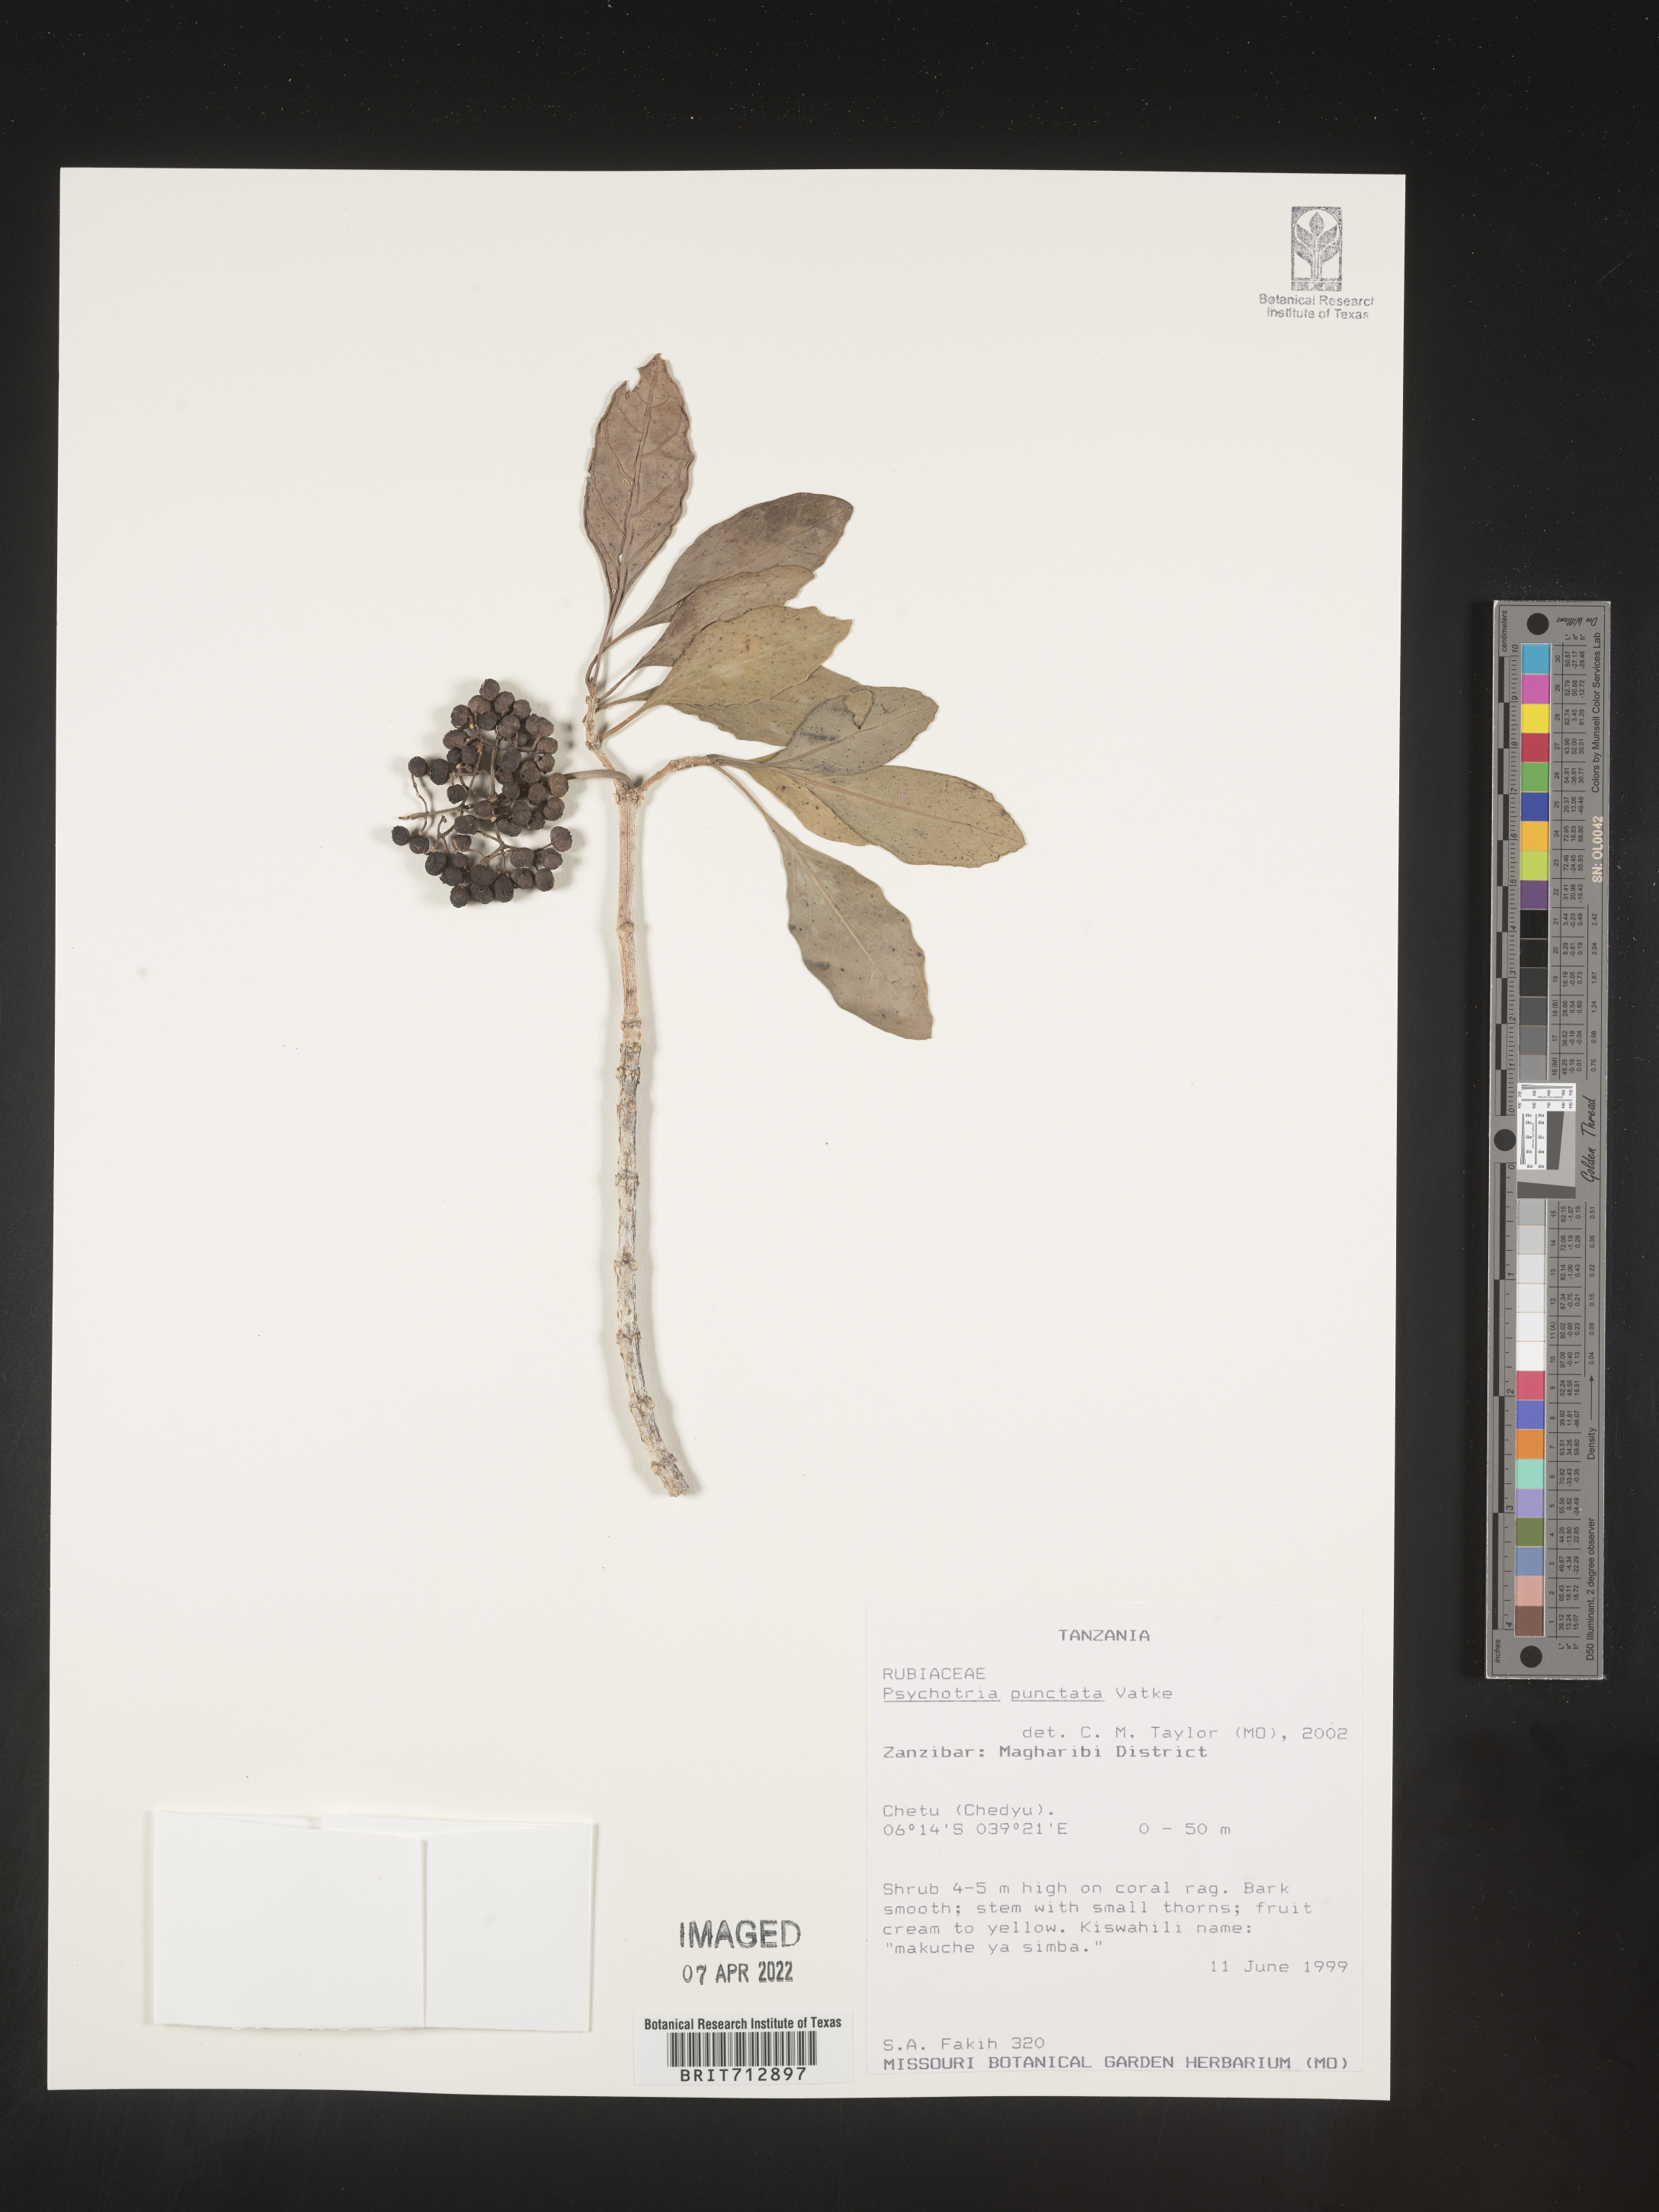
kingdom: Plantae
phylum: Tracheophyta
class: Magnoliopsida
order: Gentianales
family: Rubiaceae
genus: Psychotria
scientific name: Psychotria
